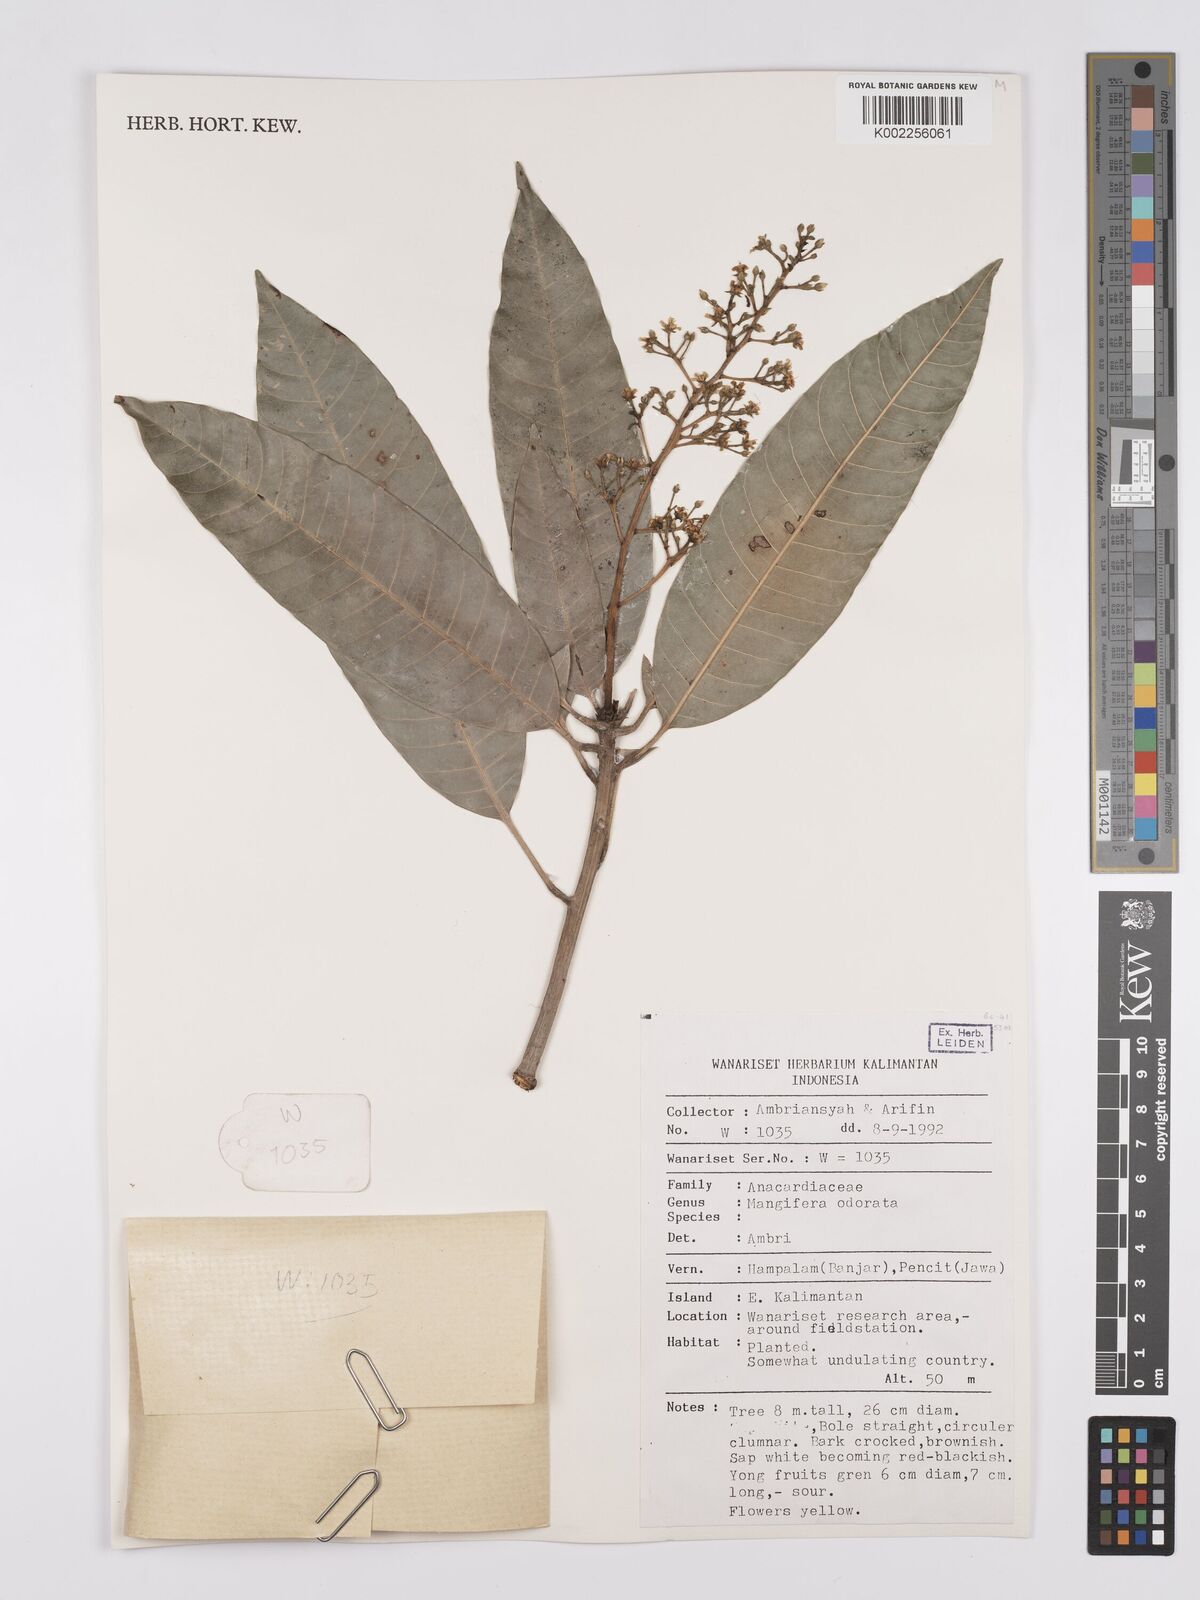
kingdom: Plantae
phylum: Tracheophyta
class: Magnoliopsida
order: Sapindales
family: Anacardiaceae
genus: Mangifera
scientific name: Mangifera odorata
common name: Saipan mango
